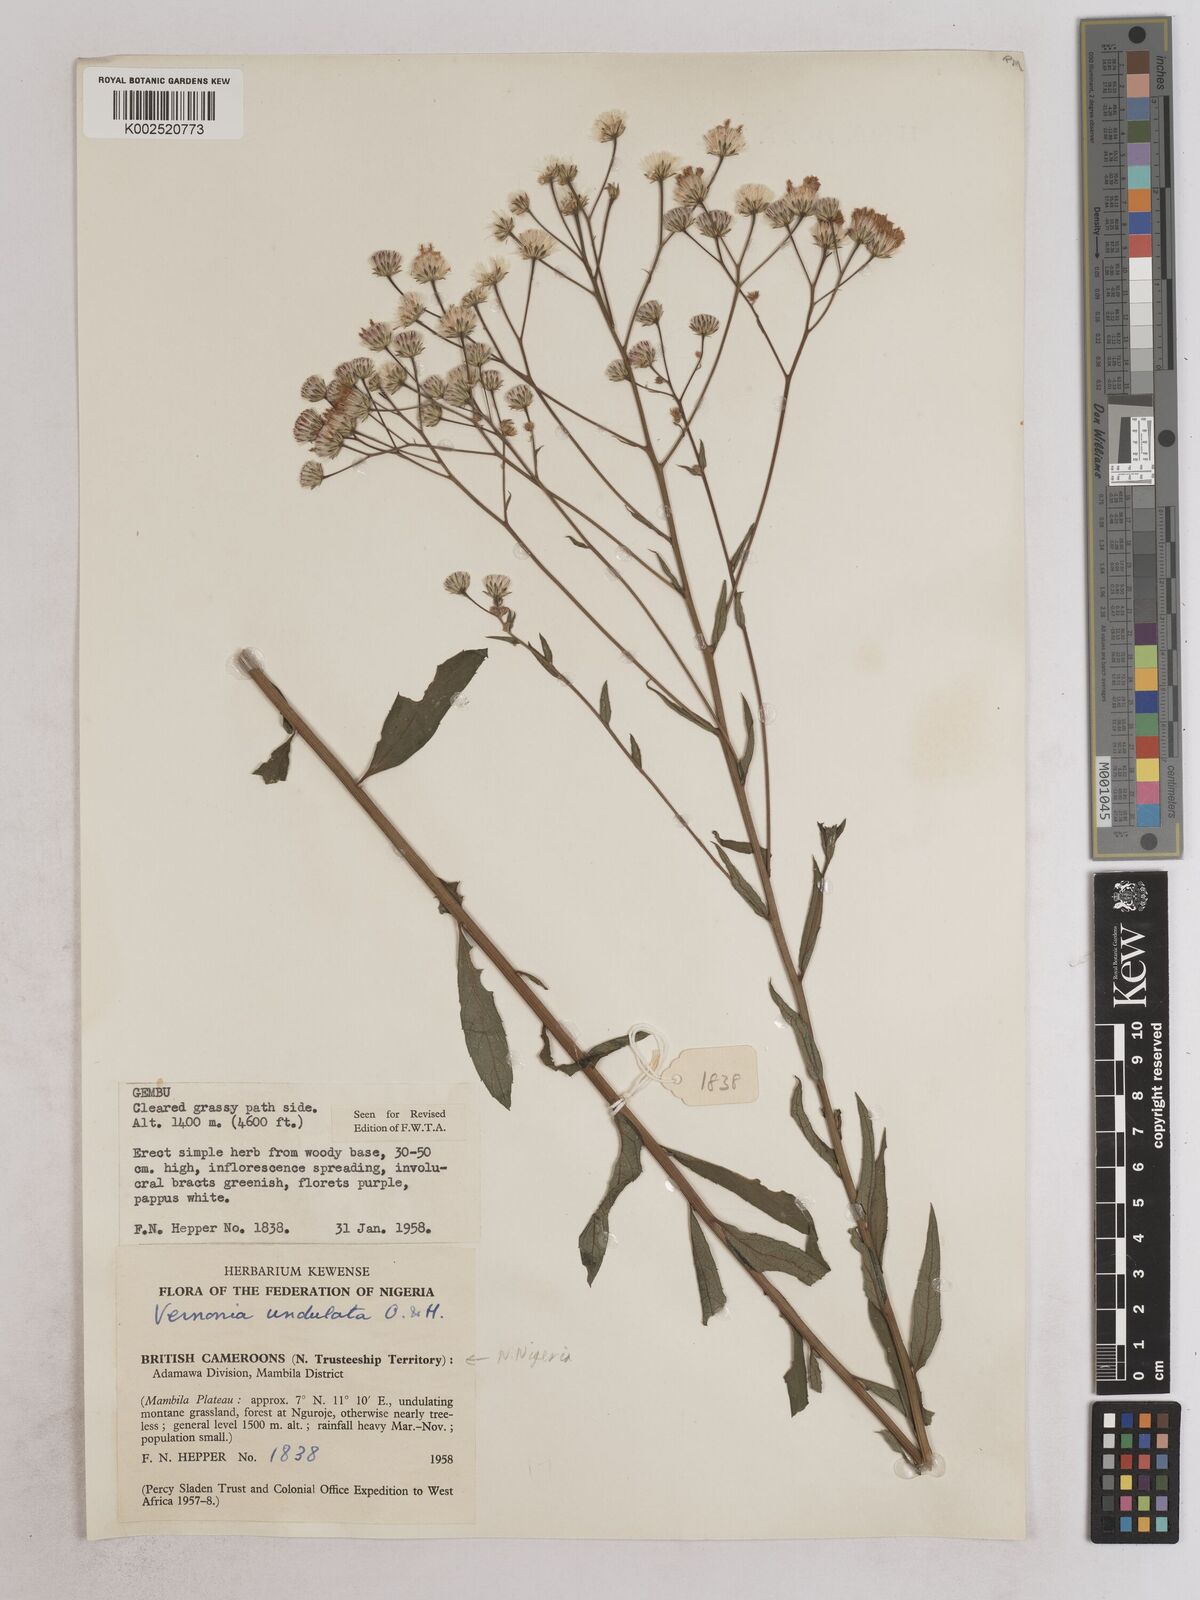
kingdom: Plantae
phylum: Tracheophyta
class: Magnoliopsida
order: Asterales
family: Asteraceae
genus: Vernonia
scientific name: Vernonia golungensis
